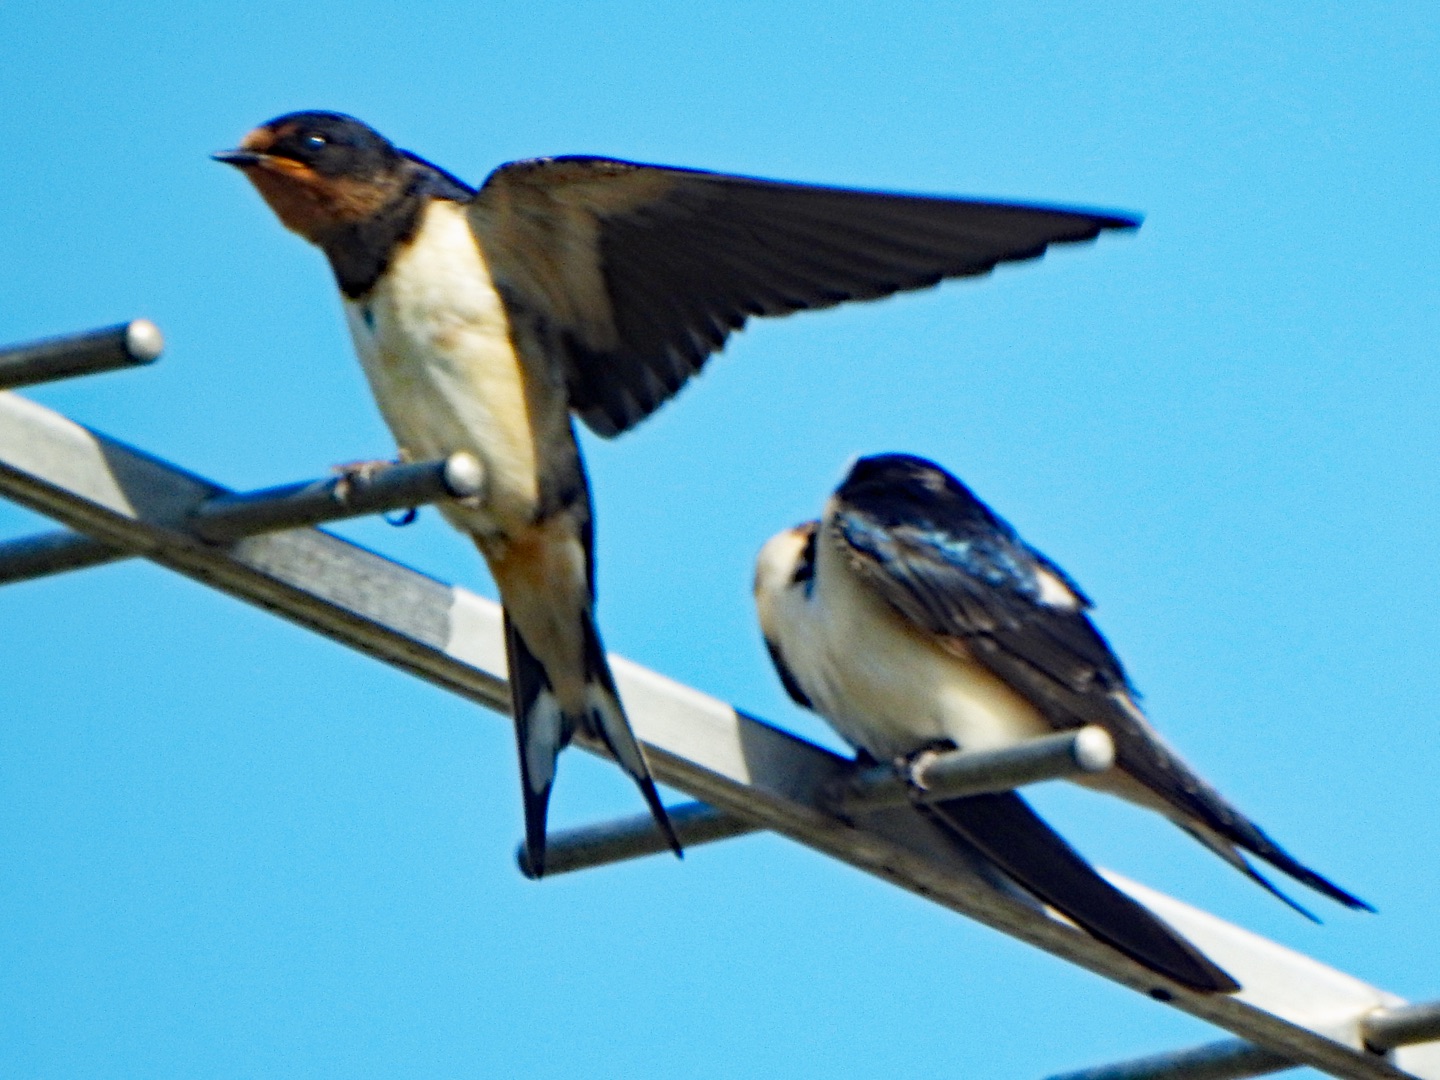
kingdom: Animalia
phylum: Chordata
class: Aves
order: Passeriformes
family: Hirundinidae
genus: Hirundo
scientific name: Hirundo rustica
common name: Landsvale
